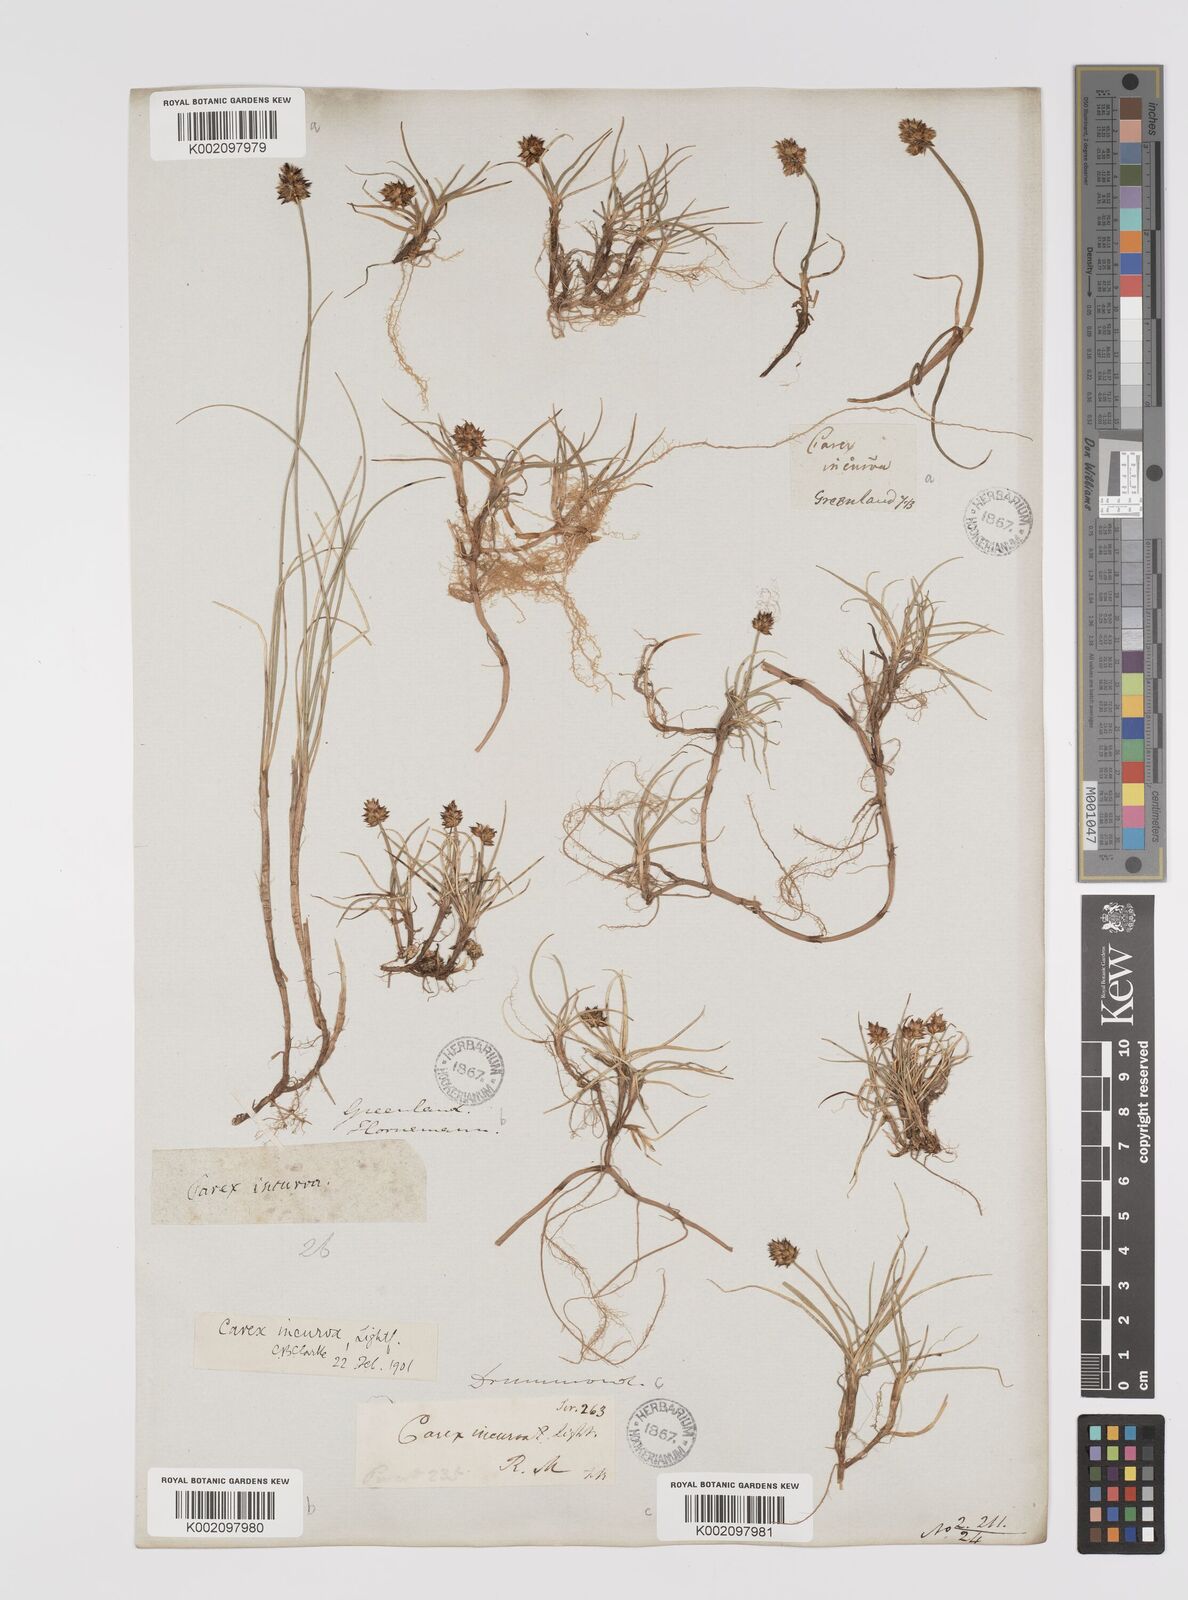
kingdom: Plantae
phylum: Tracheophyta
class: Liliopsida
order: Poales
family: Cyperaceae
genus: Carex
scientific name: Carex maritima
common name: Curved sedge
